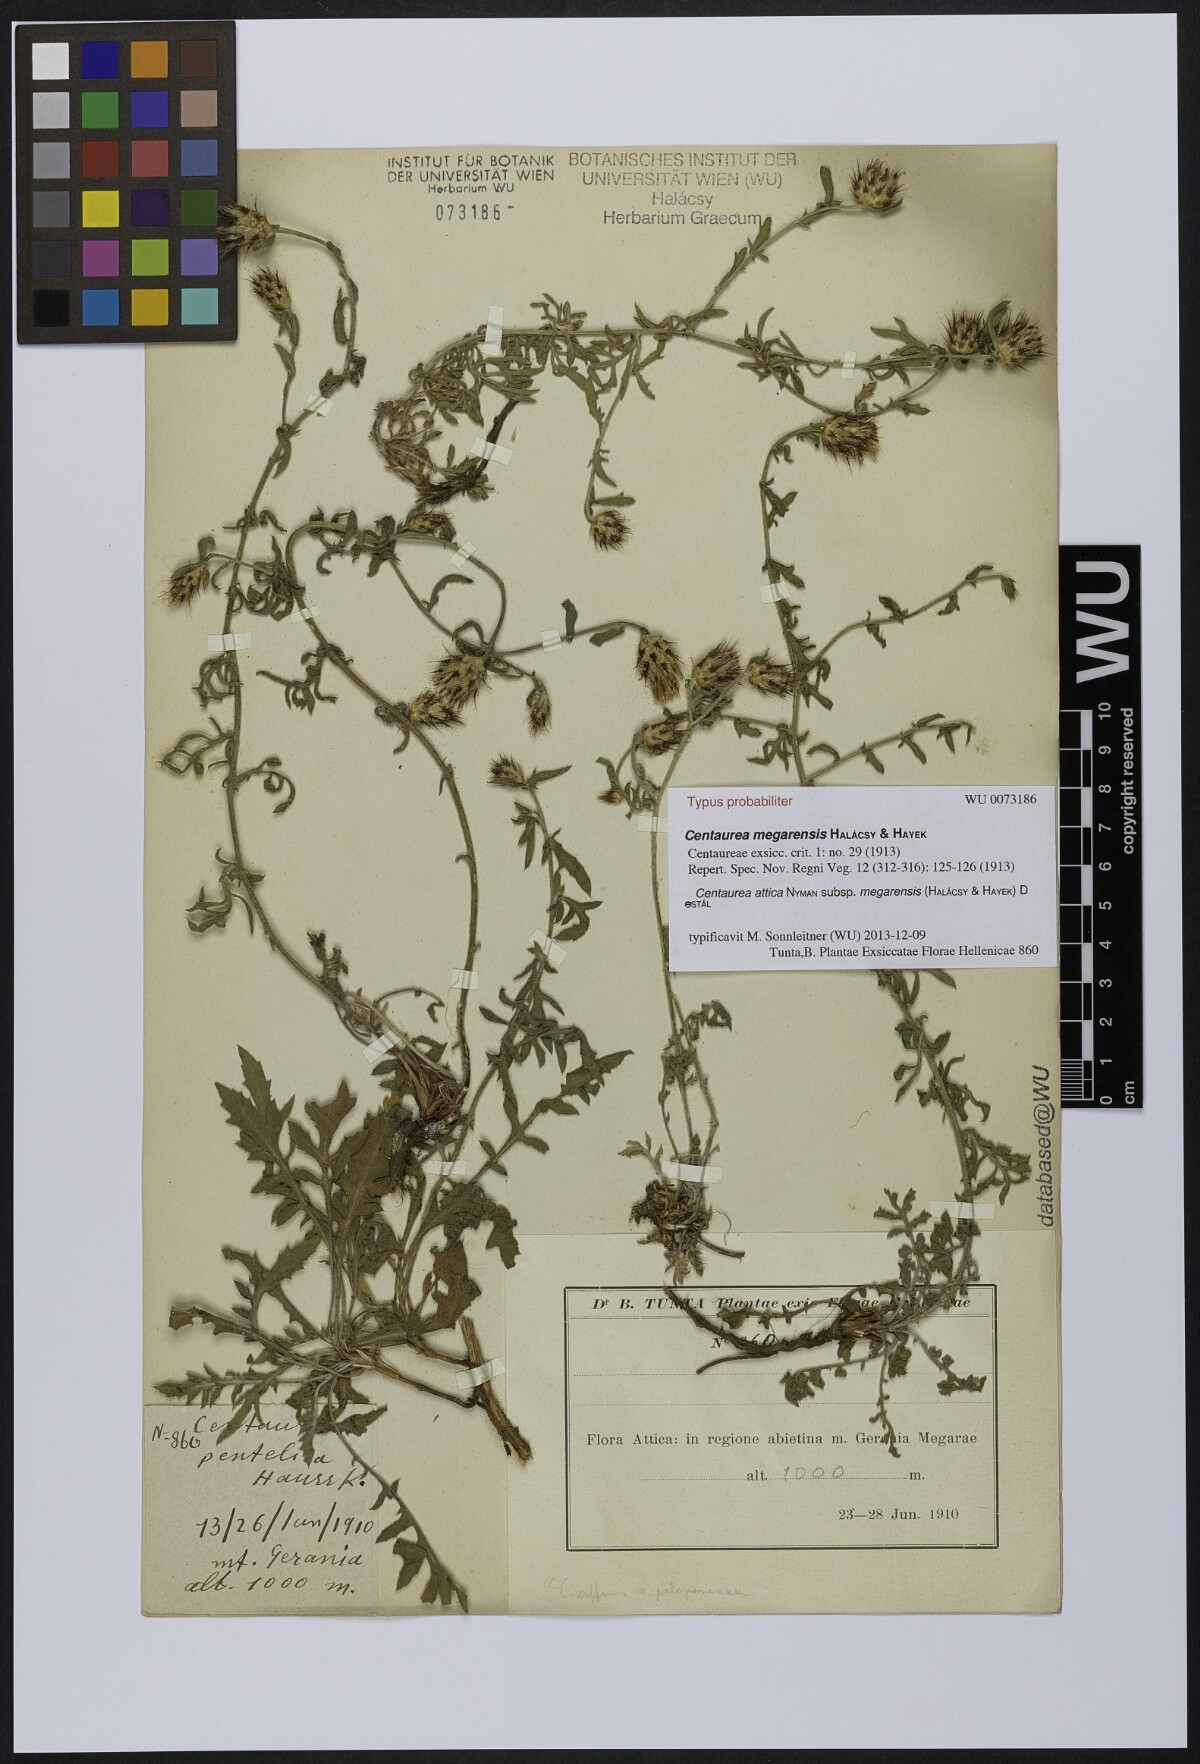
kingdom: Plantae
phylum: Tracheophyta
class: Magnoliopsida
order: Asterales
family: Asteraceae
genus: Centaurea
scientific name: Centaurea attica
